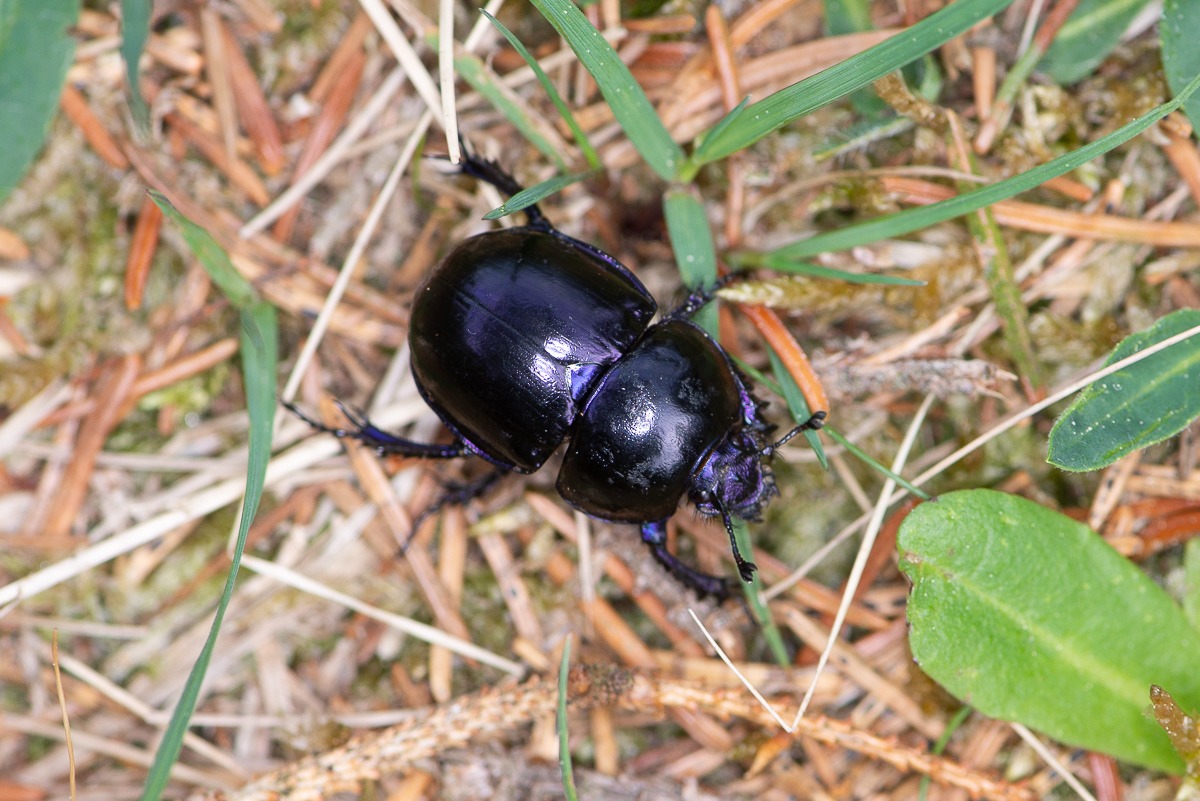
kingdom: Animalia
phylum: Arthropoda
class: Insecta
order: Coleoptera
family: Geotrupidae
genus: Trypocopris
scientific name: Trypocopris vernalis
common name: Glat skarnbasse
